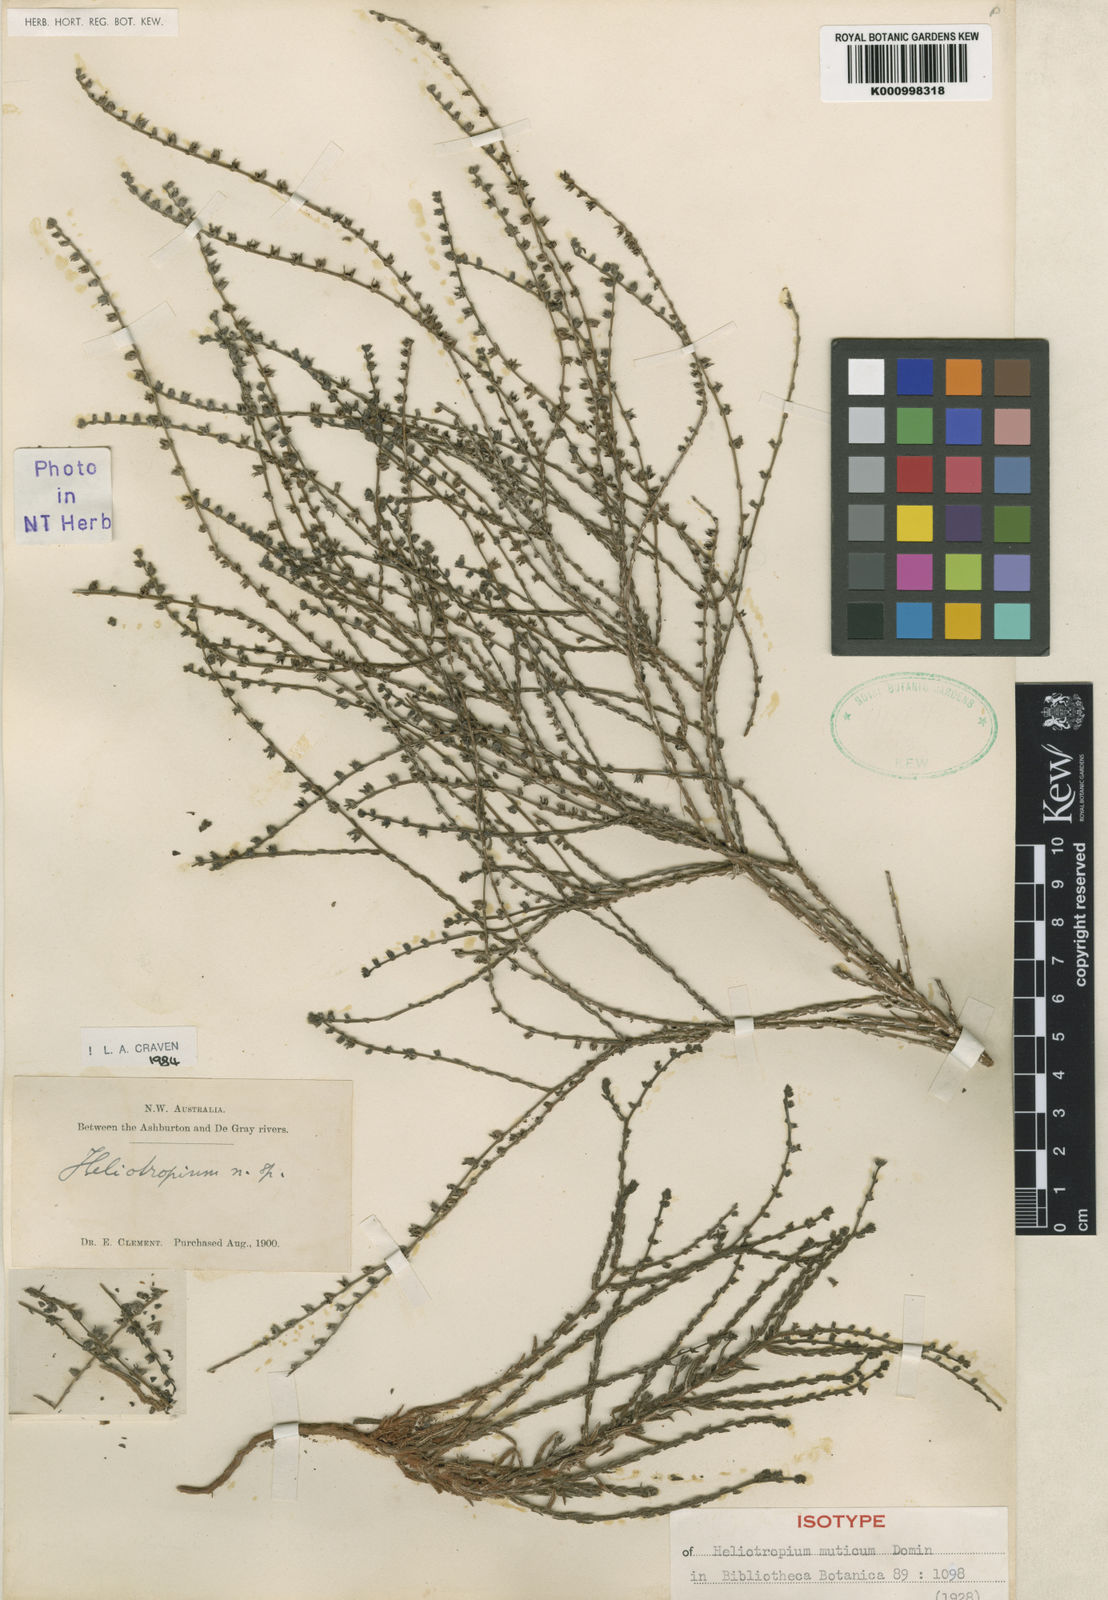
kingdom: Plantae
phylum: Tracheophyta
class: Magnoliopsida
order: Boraginales
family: Heliotropiaceae
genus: Euploca
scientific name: Euploca mutica
